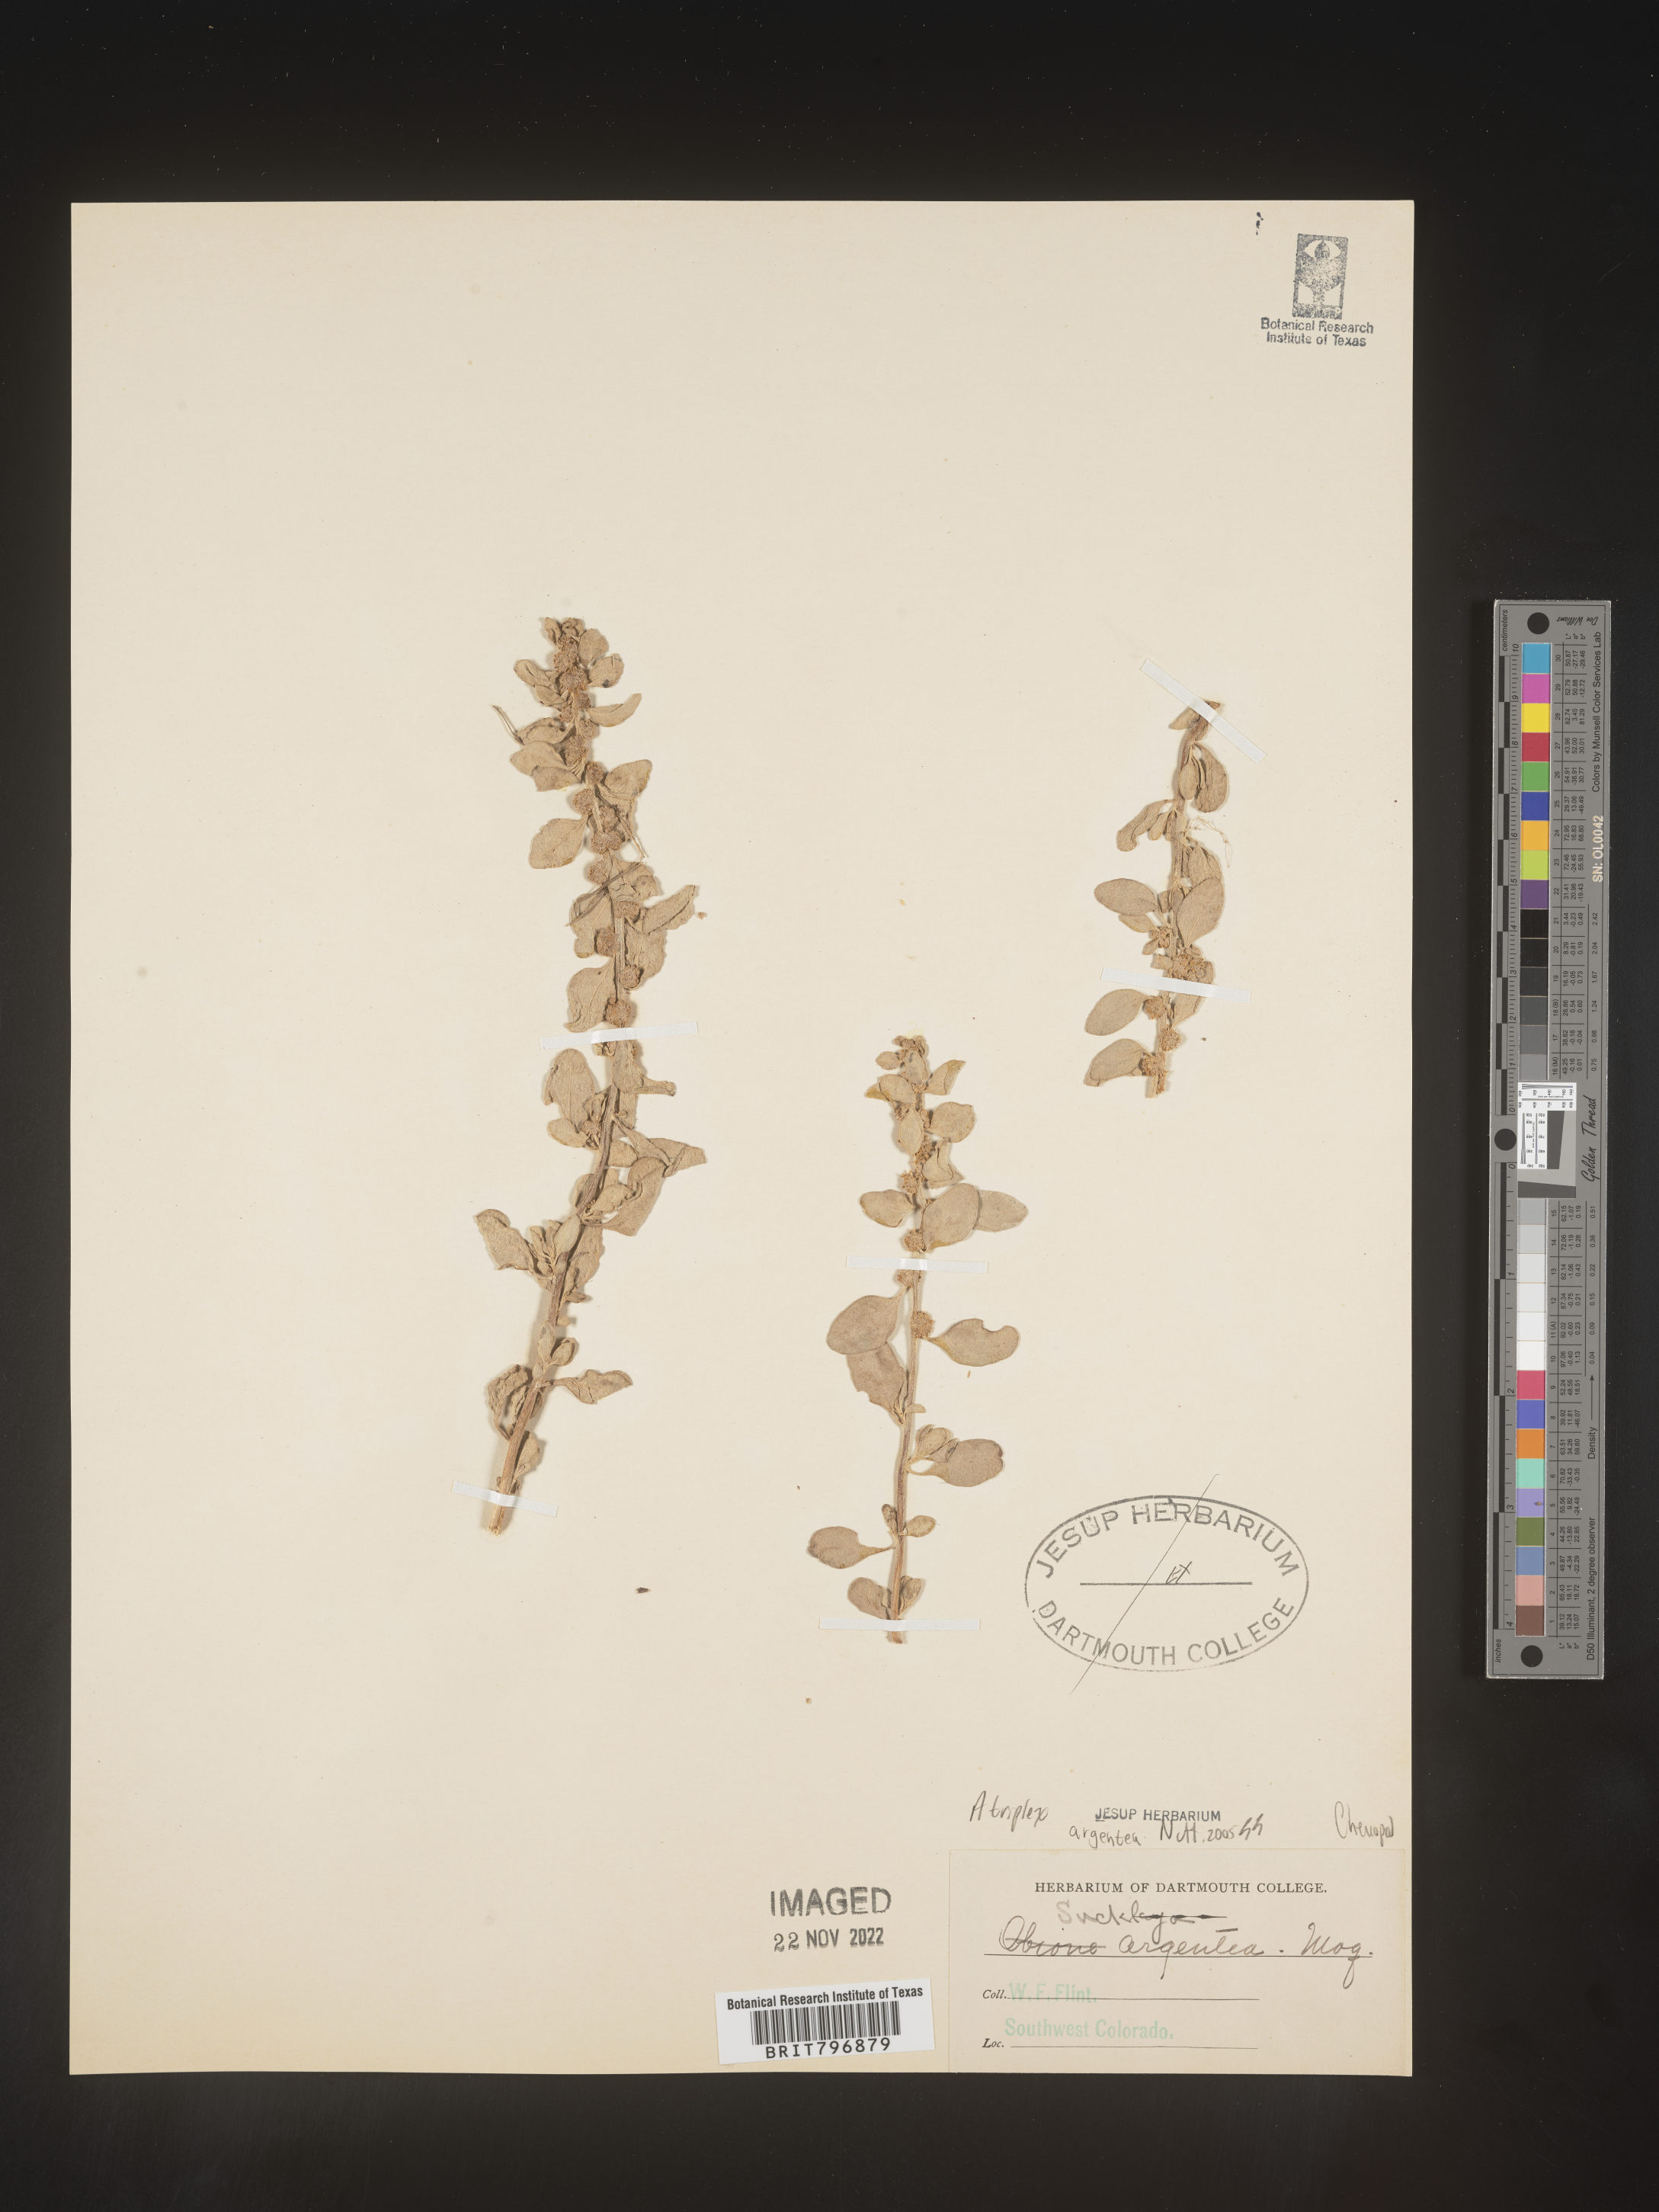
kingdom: Plantae
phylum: Tracheophyta
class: Magnoliopsida
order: Caryophyllales
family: Amaranthaceae
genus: Atriplex
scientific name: Atriplex argentea
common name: Silverscale
